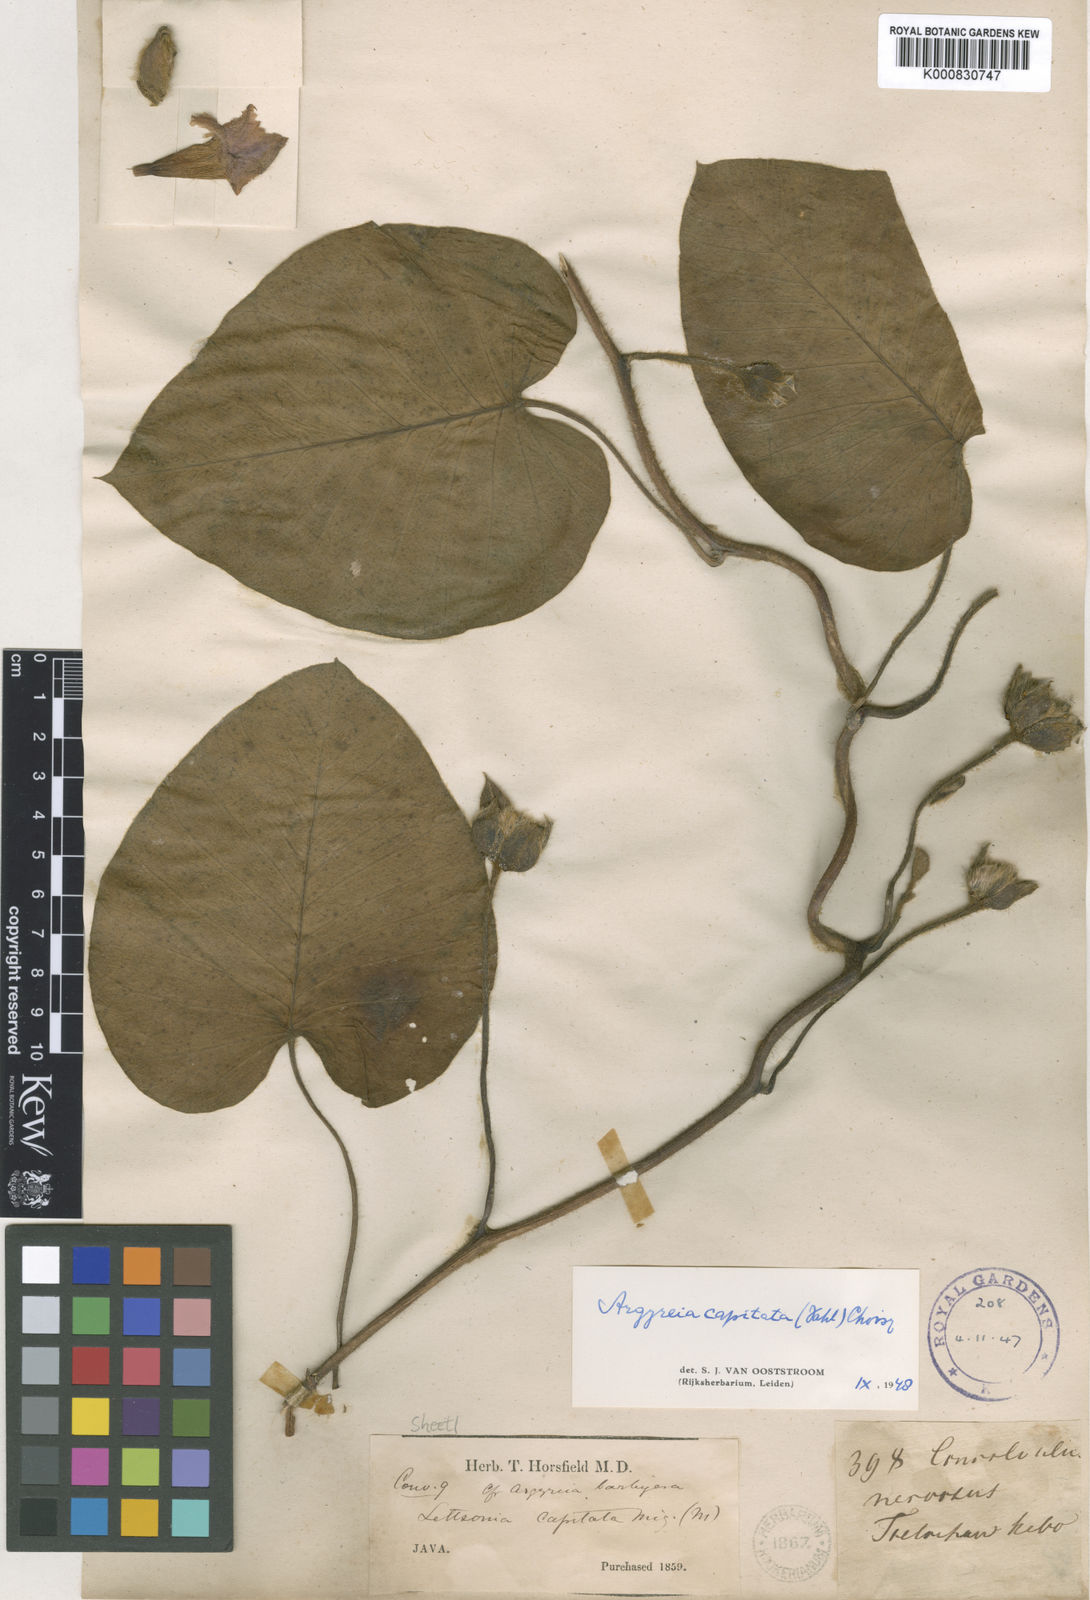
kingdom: Plantae
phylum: Tracheophyta
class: Magnoliopsida
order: Solanales
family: Convolvulaceae
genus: Argyreia
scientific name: Argyreia capitiformis
